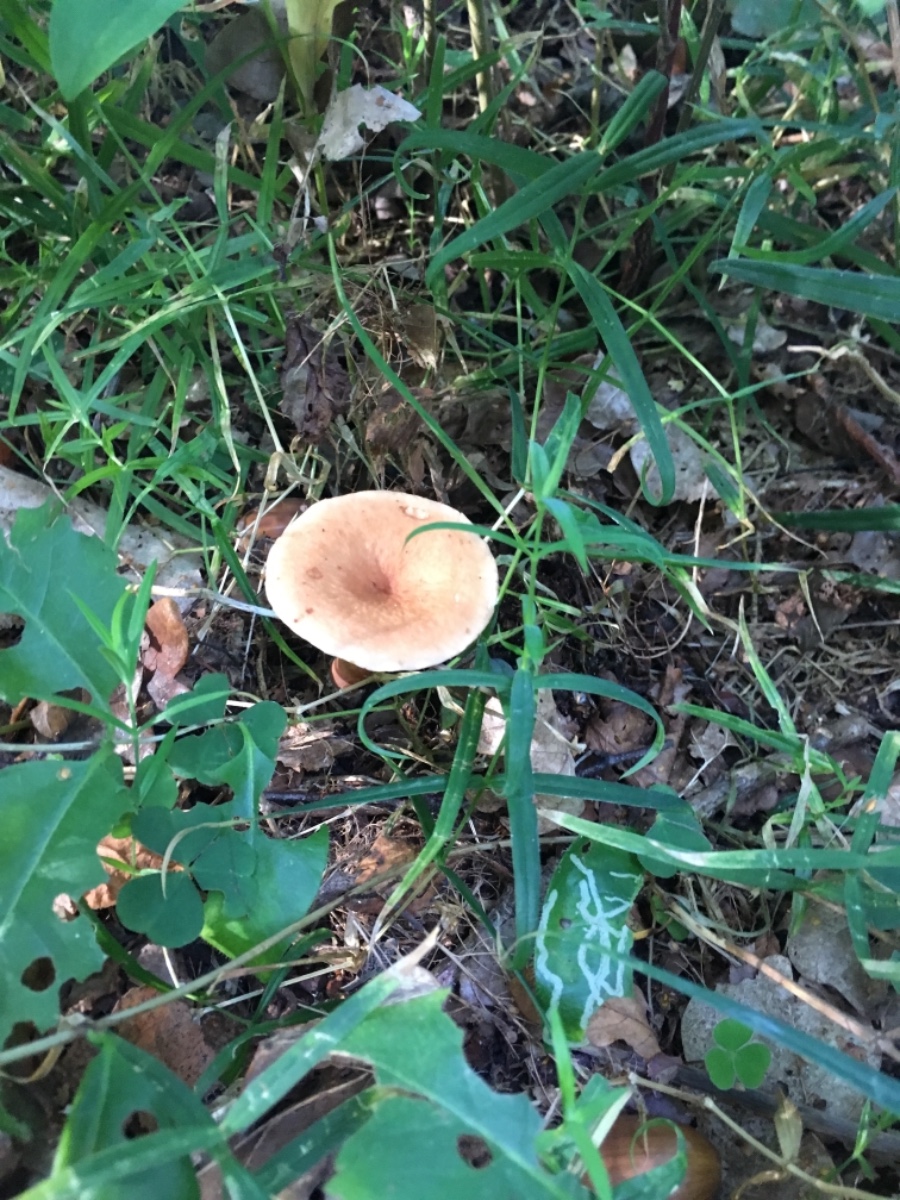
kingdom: Fungi
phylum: Basidiomycota
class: Agaricomycetes
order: Russulales
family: Russulaceae
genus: Lactarius
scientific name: Lactarius tabidus
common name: rynket mælkehat
